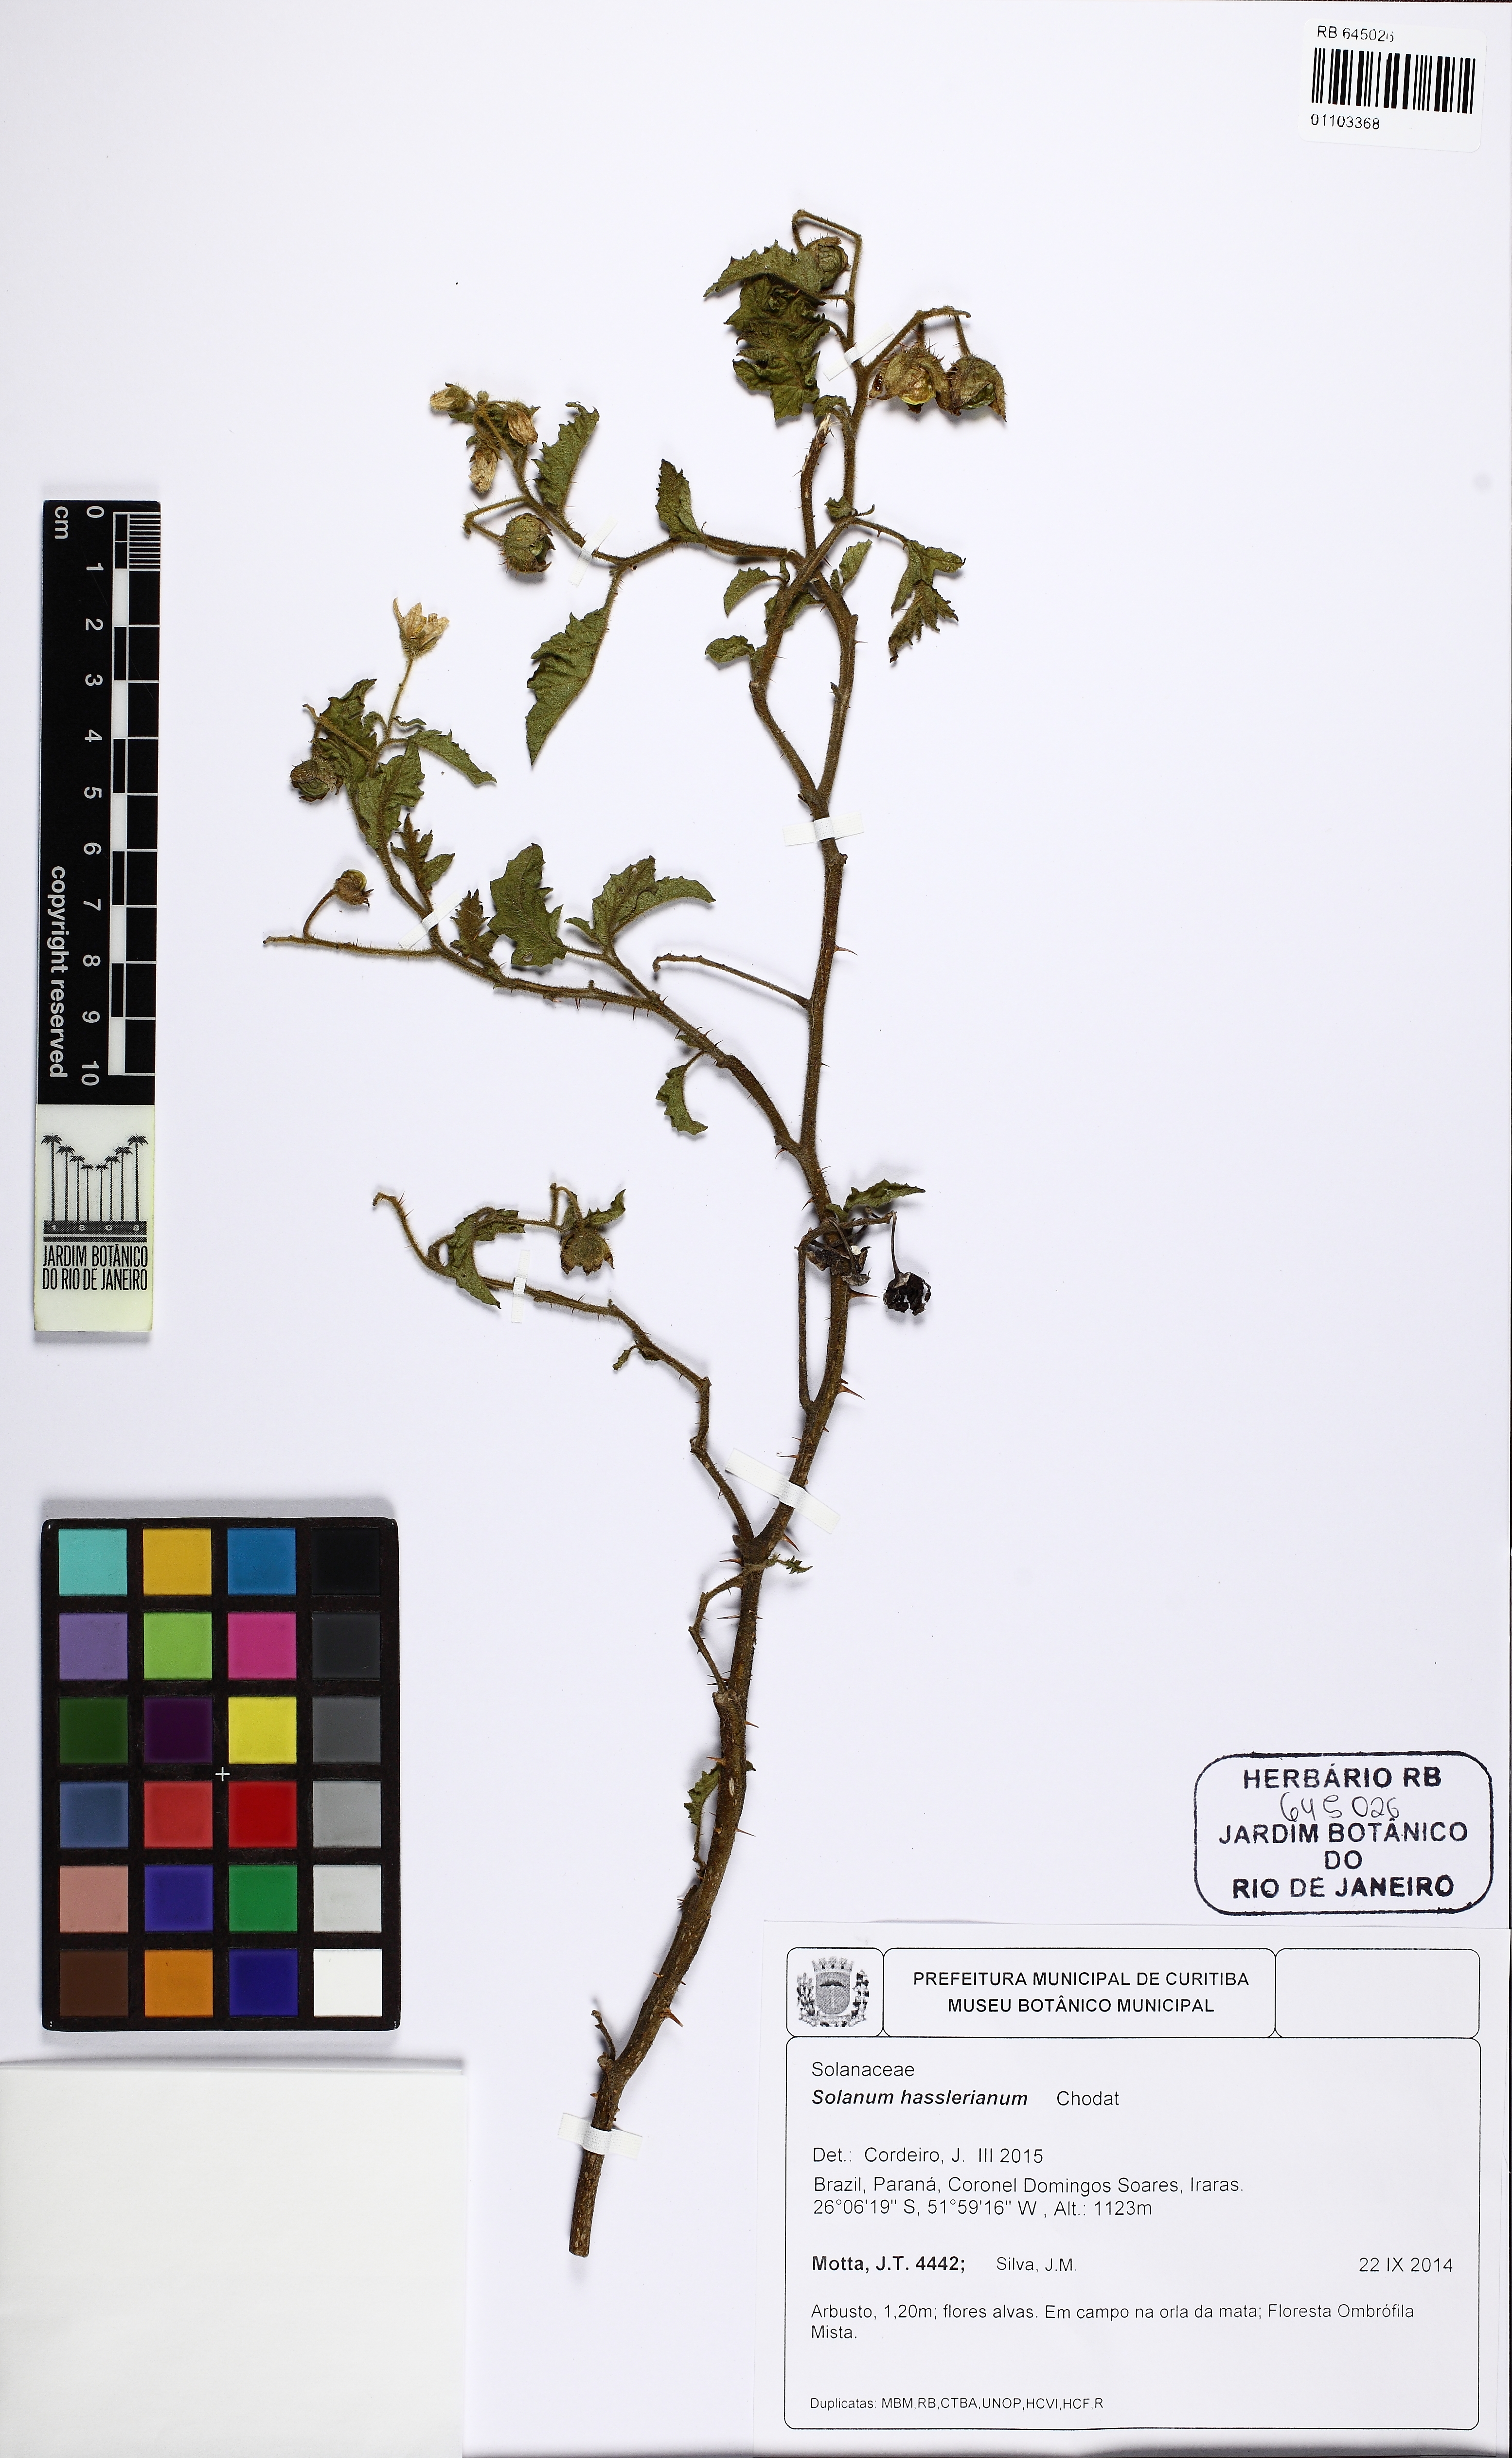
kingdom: Plantae
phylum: Tracheophyta
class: Magnoliopsida
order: Solanales
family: Solanaceae
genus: Solanum
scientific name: Solanum hasslerianum
